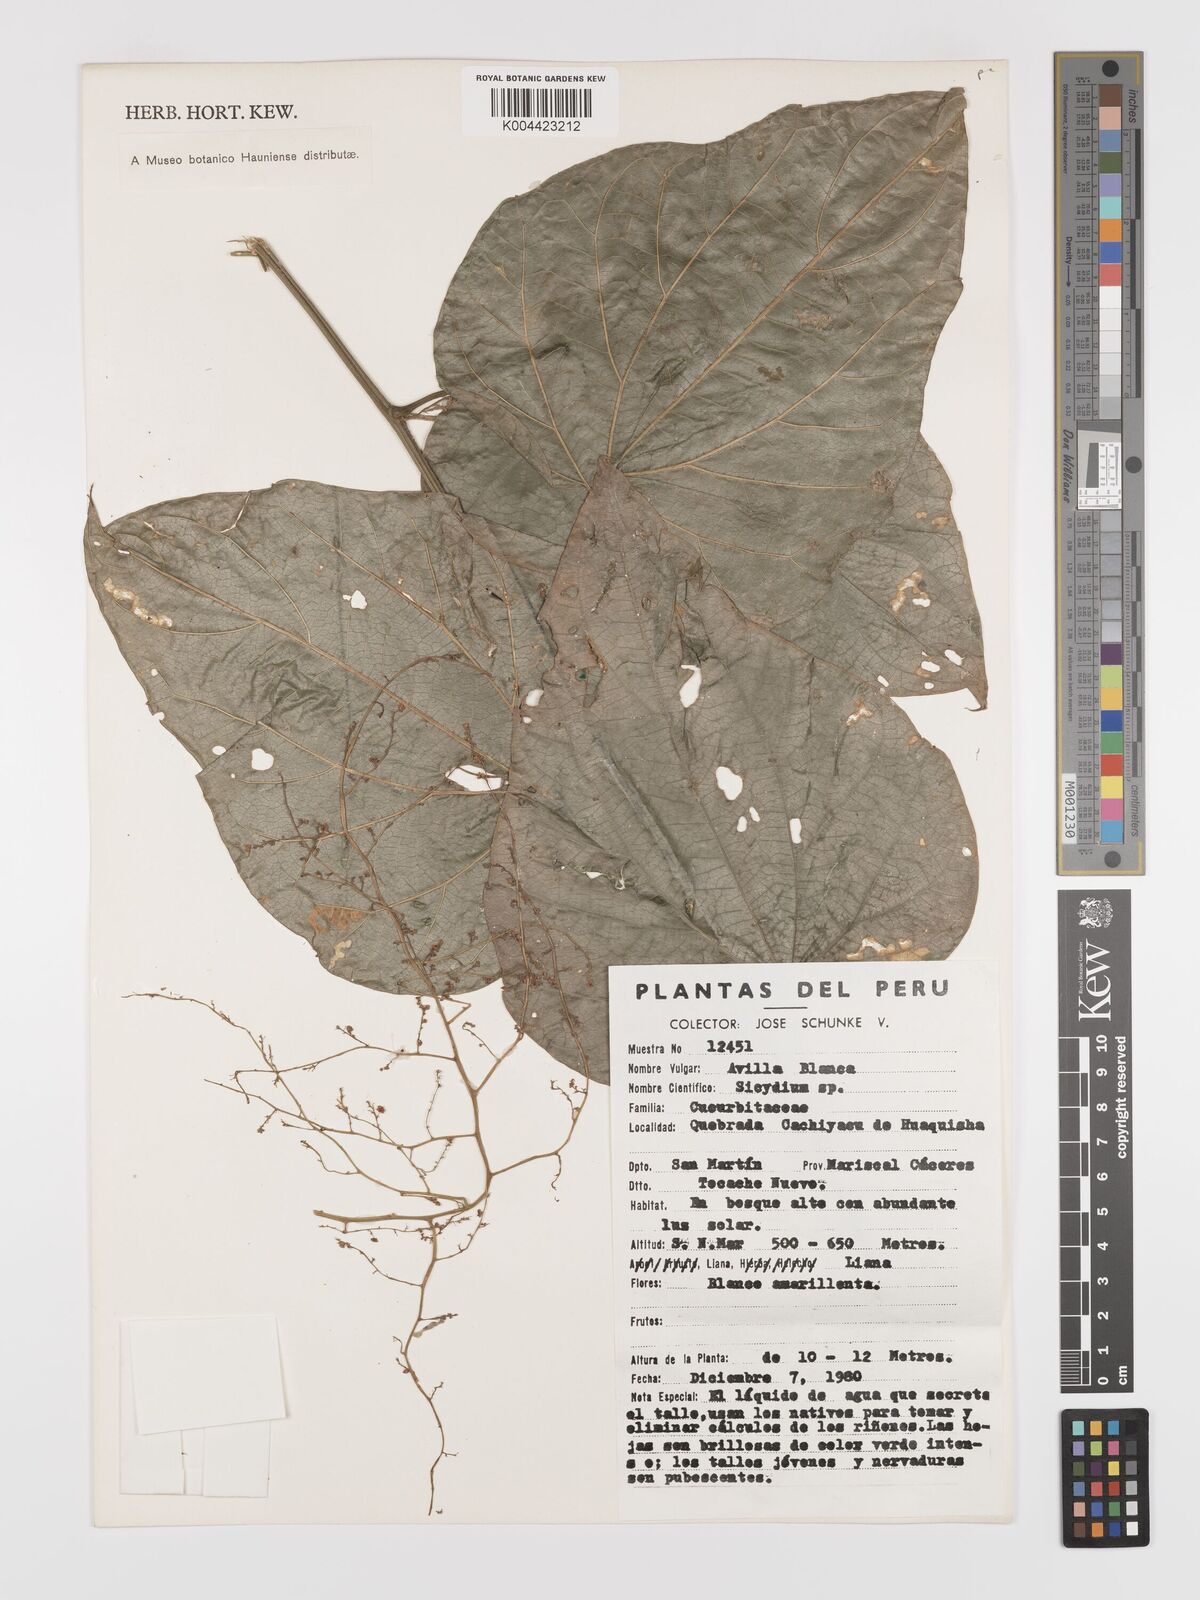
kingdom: Plantae
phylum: Tracheophyta
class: Magnoliopsida
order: Cucurbitales
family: Cucurbitaceae
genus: Fevillea
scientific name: Fevillea pedatifolia
